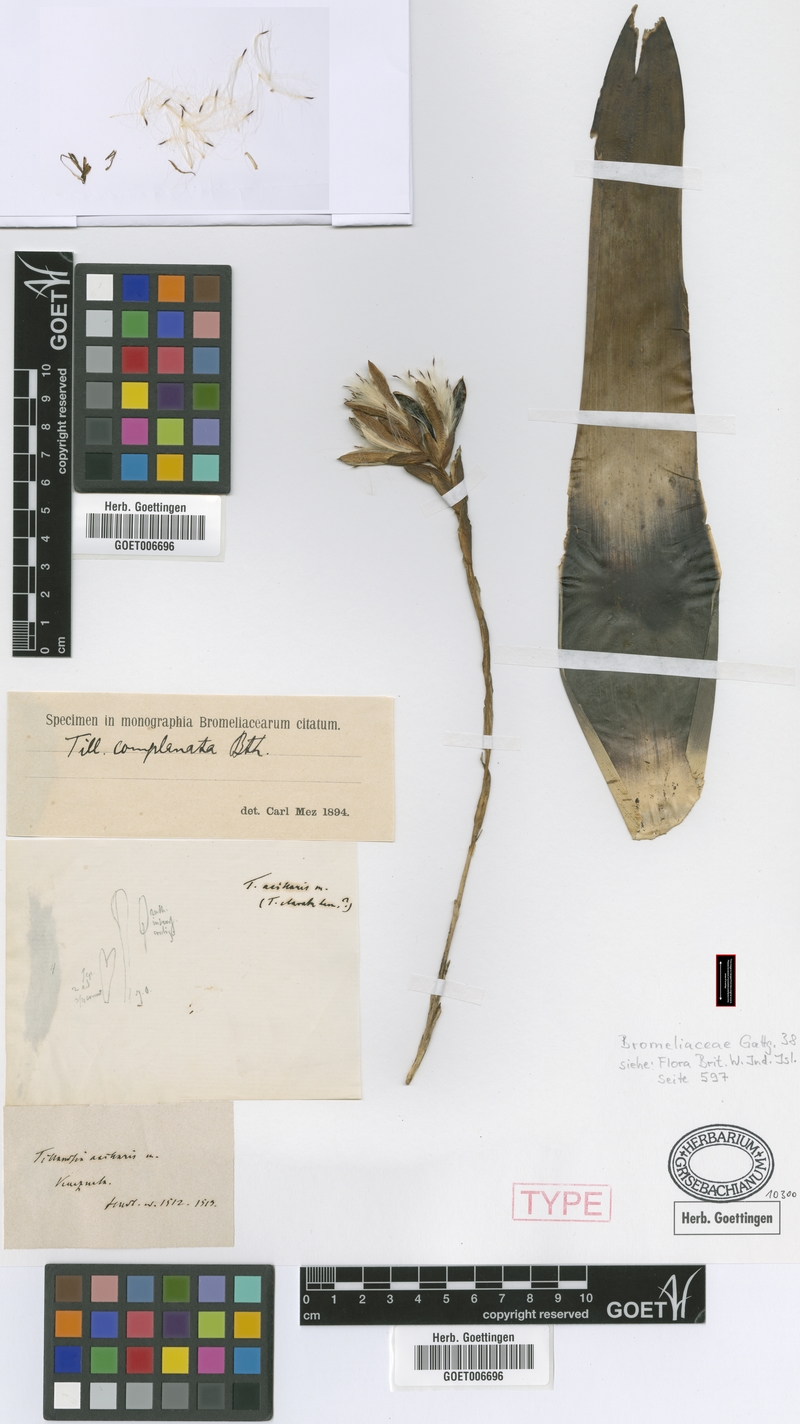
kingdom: Plantae
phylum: Tracheophyta
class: Liliopsida
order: Poales
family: Bromeliaceae
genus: Tillandsia
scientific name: Tillandsia complanata
